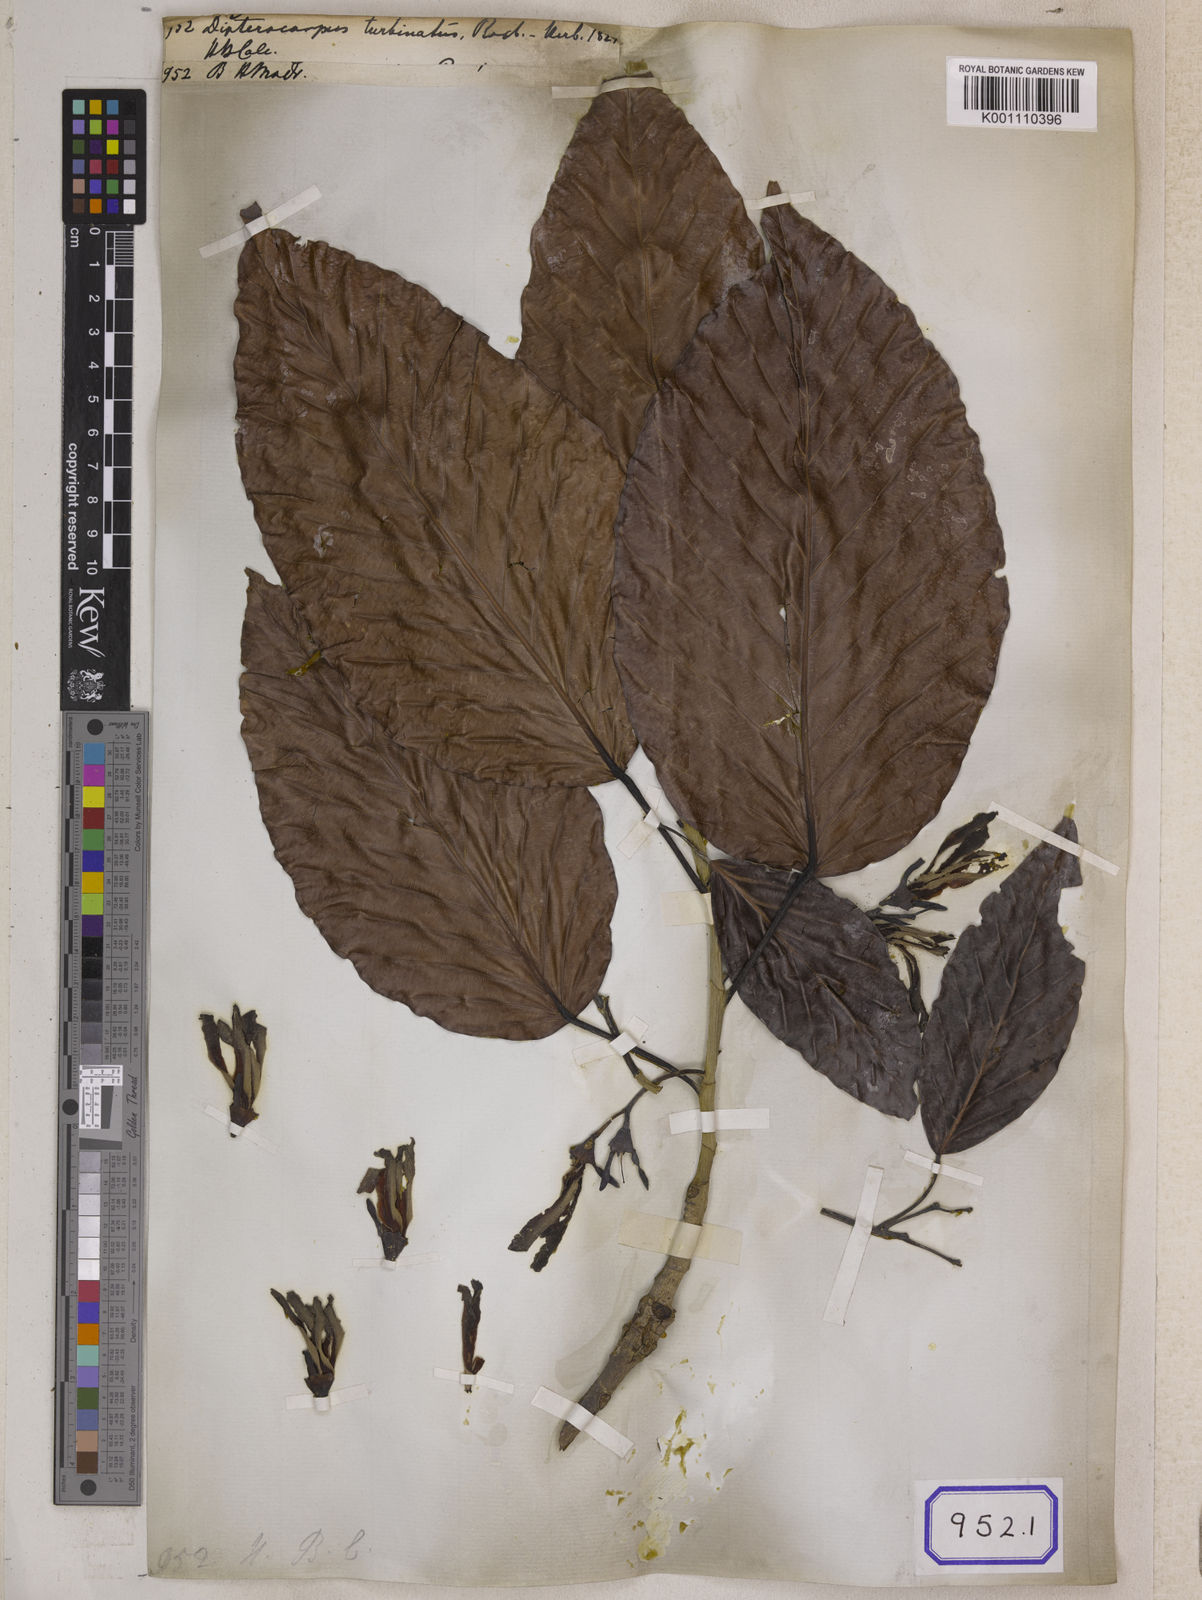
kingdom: Plantae
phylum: Tracheophyta
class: Magnoliopsida
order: Malvales
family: Dipterocarpaceae
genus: Dipterocarpus
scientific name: Dipterocarpus turbinatus
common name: East indian copaiba balsam
